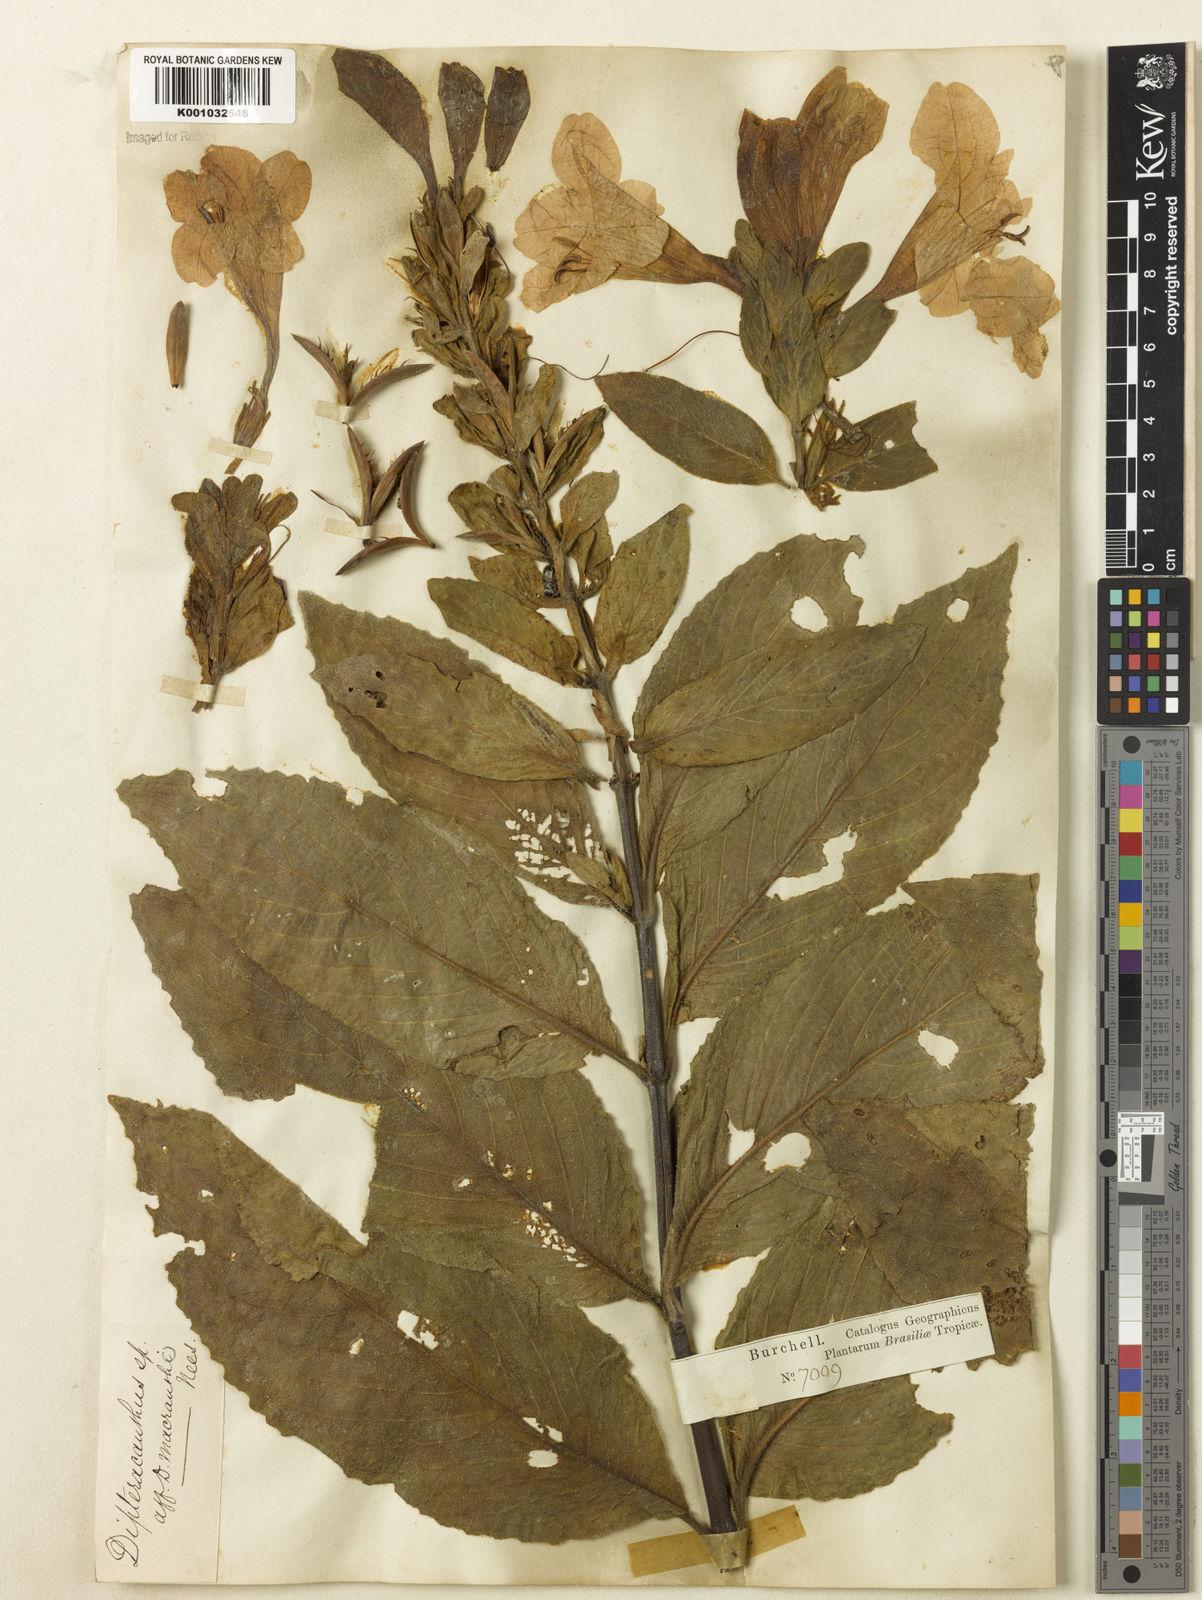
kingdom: Plantae
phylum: Tracheophyta
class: Magnoliopsida
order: Lamiales
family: Acanthaceae
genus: Ruellia
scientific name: Ruellia
